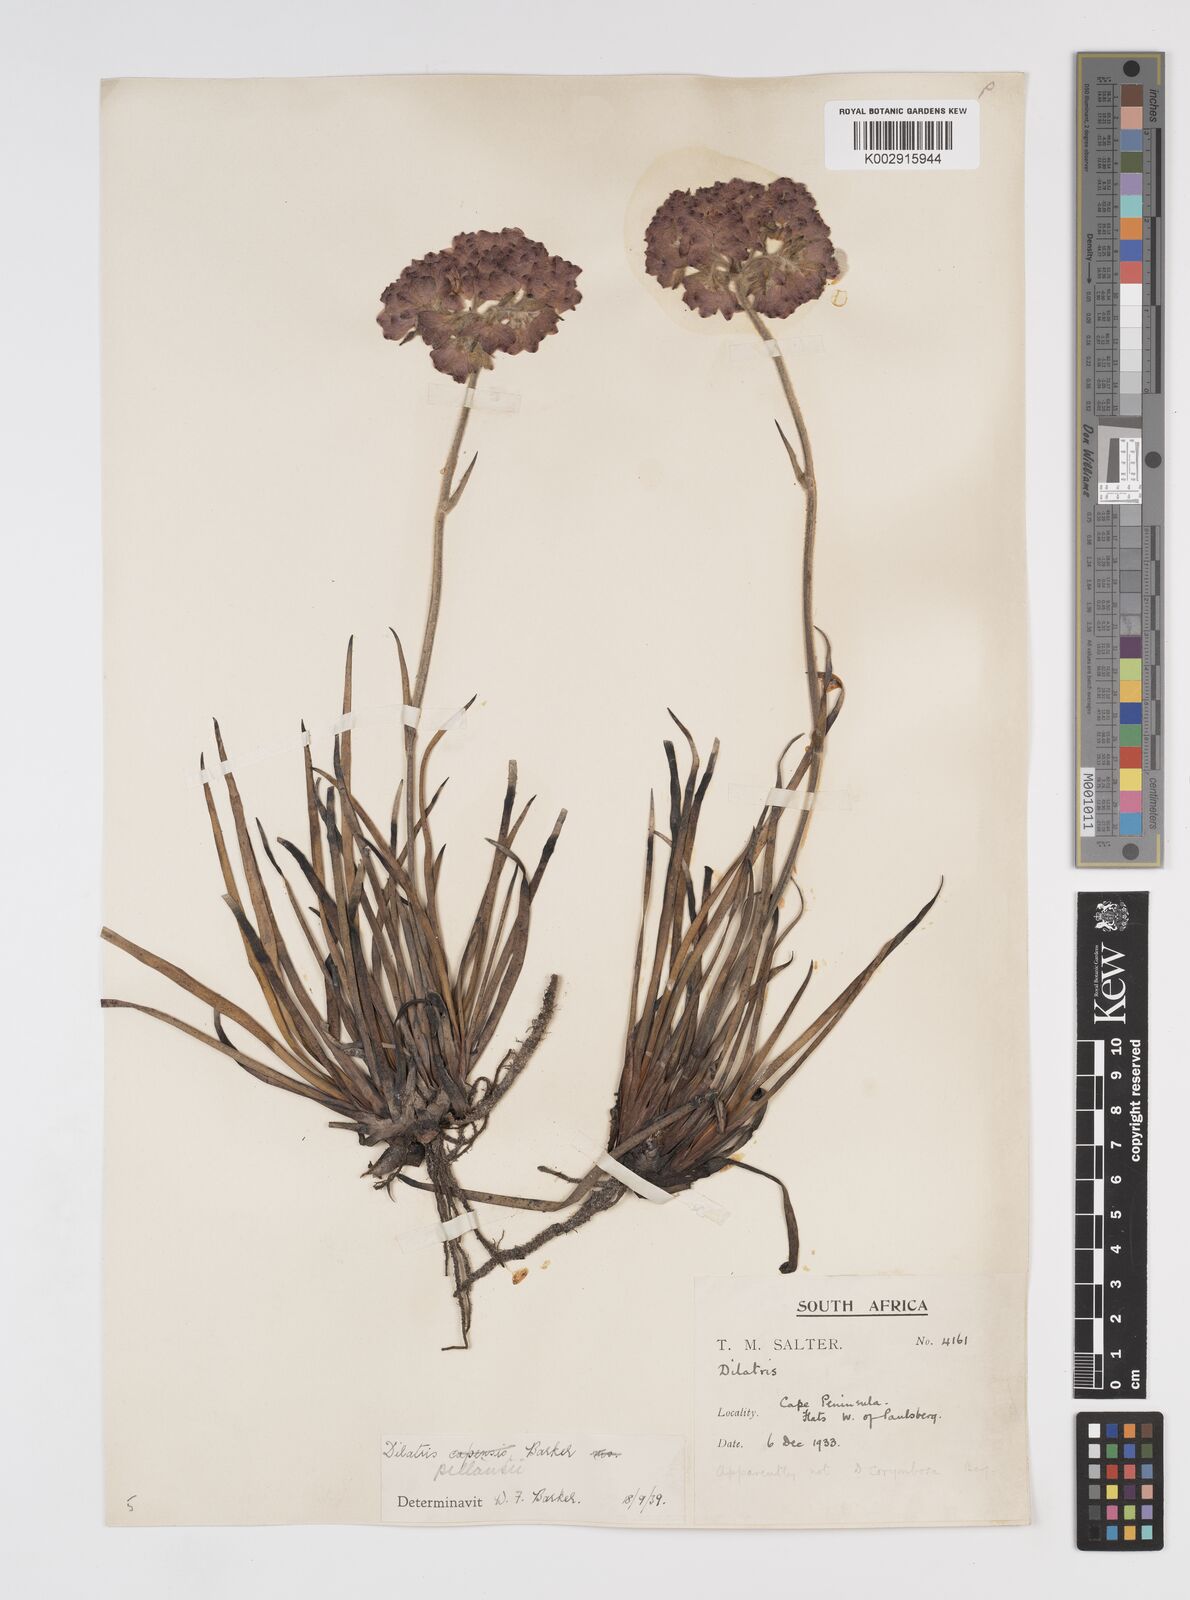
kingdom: Plantae
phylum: Tracheophyta
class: Liliopsida
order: Commelinales
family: Haemodoraceae
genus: Dilatris
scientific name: Dilatris pillansii
